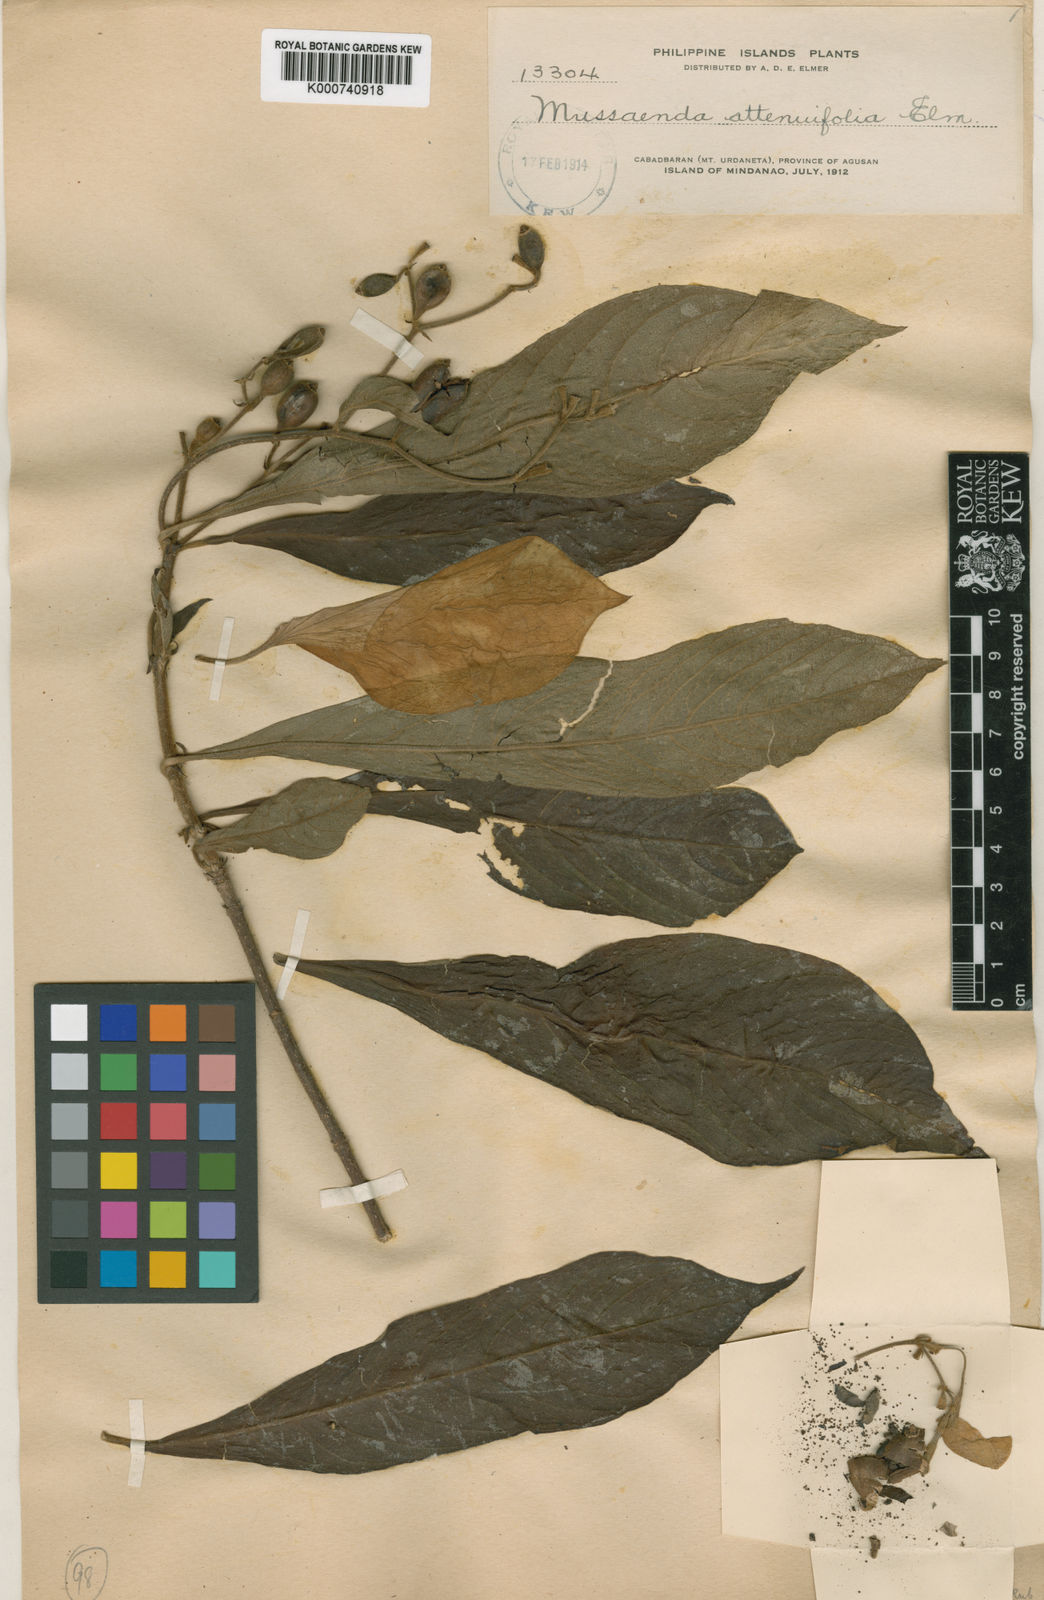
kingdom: Plantae
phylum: Tracheophyta
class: Magnoliopsida
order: Gentianales
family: Rubiaceae
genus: Mussaenda
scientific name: Mussaenda attenuifolia
